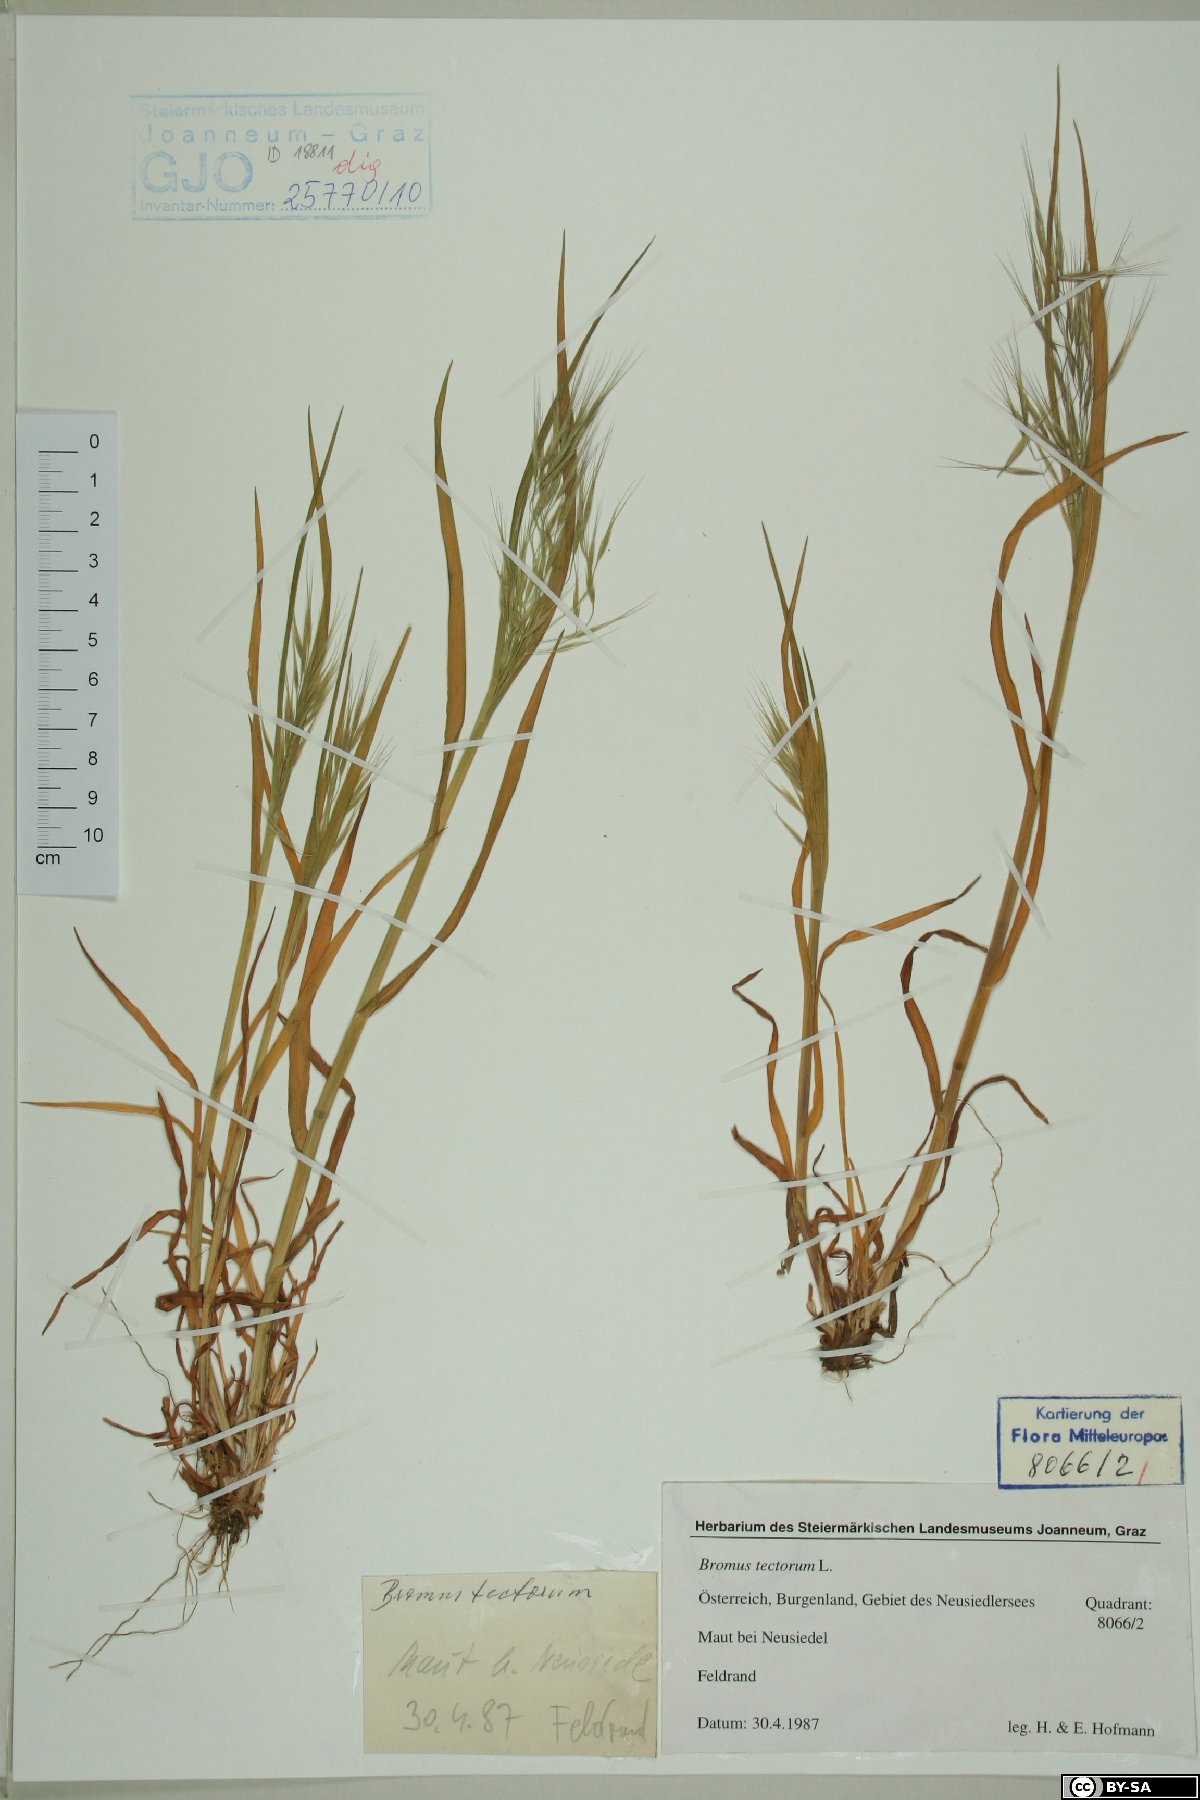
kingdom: Plantae
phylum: Tracheophyta
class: Liliopsida
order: Poales
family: Poaceae
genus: Bromus
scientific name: Bromus tectorum
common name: Cheatgrass
